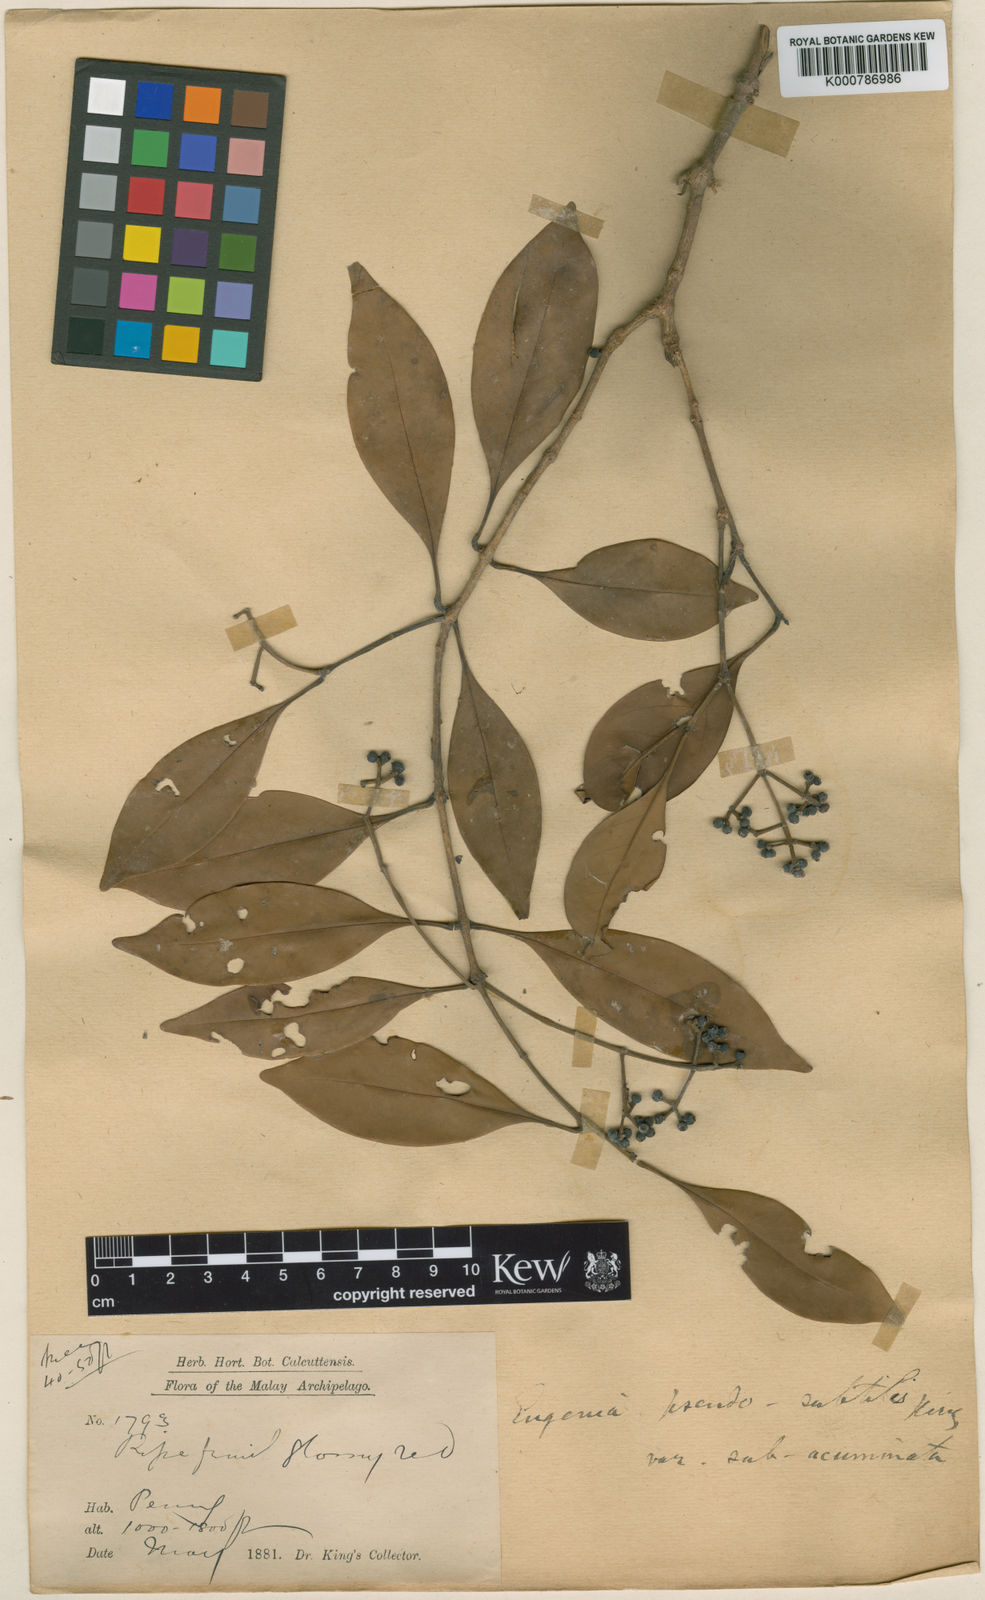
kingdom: Plantae
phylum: Tracheophyta
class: Magnoliopsida
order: Myrtales
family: Myrtaceae
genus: Syzygium
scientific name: Syzygium borneense
